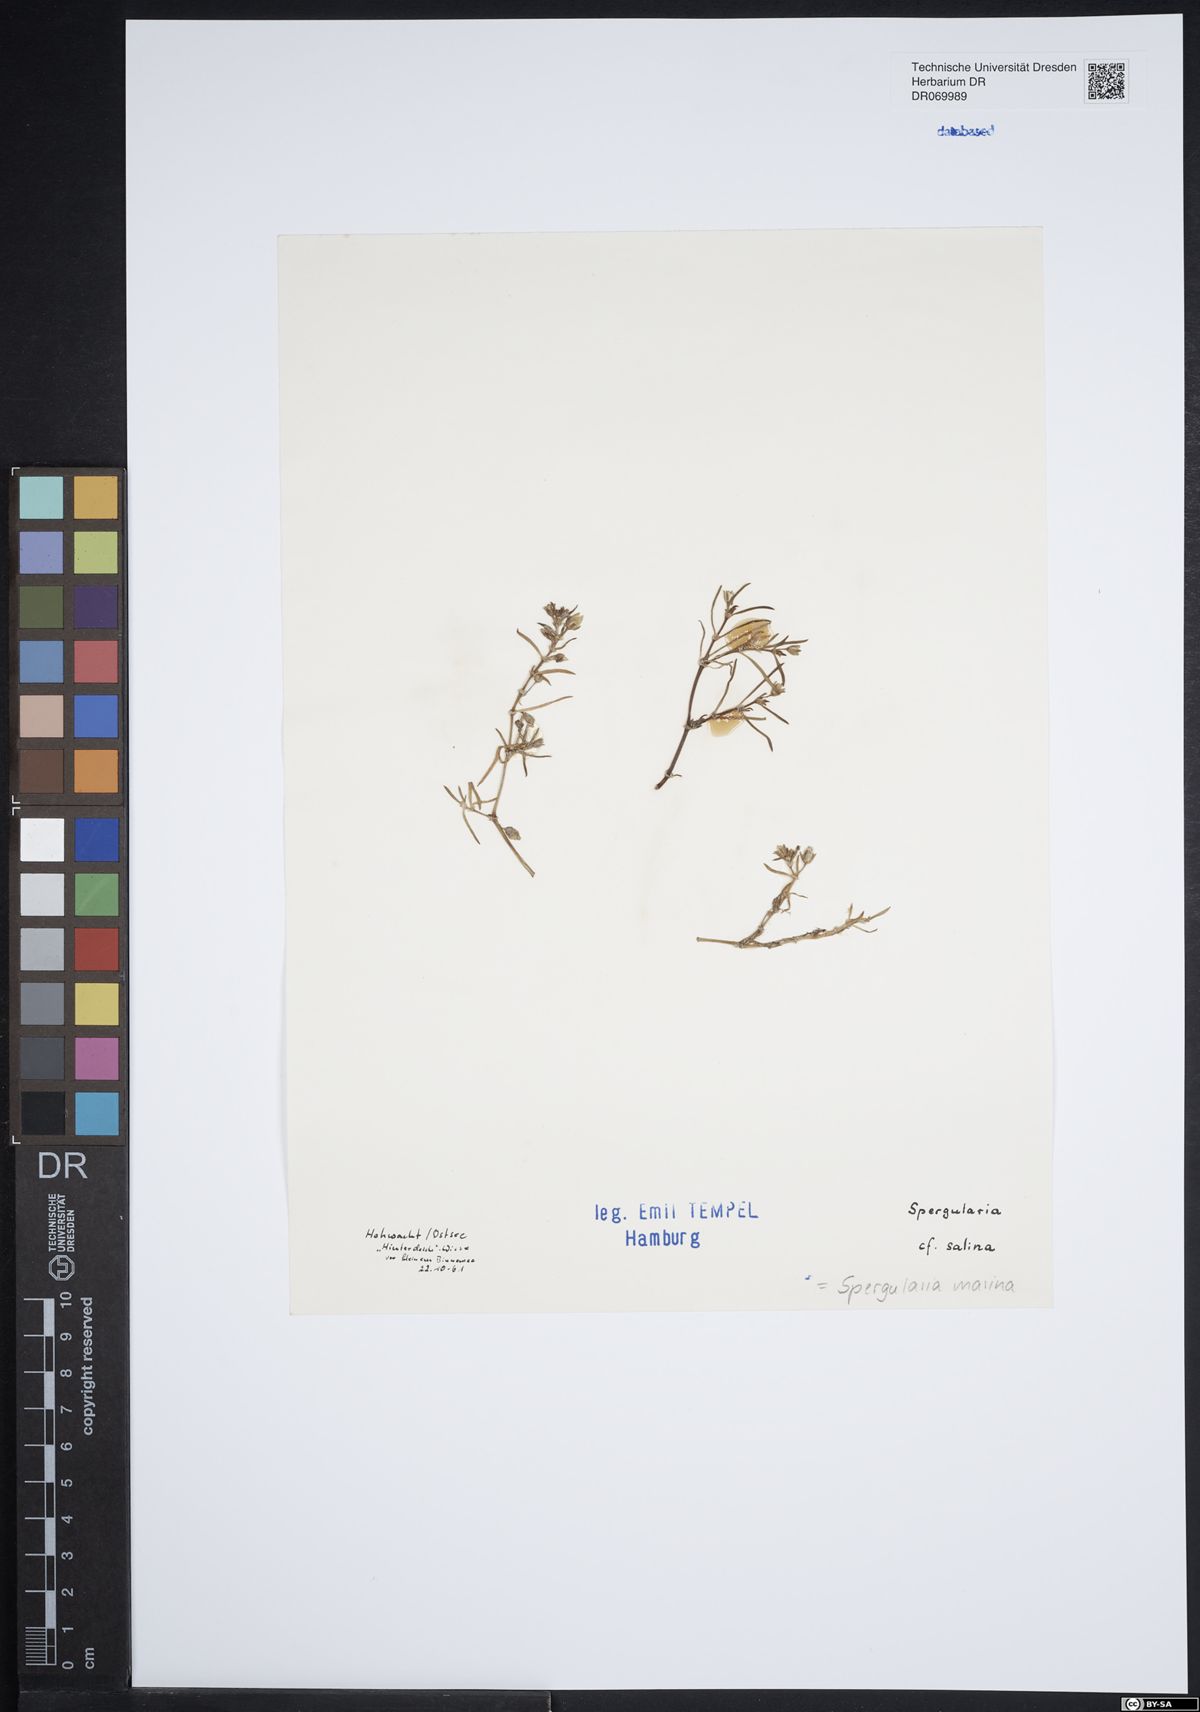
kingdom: Plantae
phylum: Tracheophyta
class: Magnoliopsida
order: Caryophyllales
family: Caryophyllaceae
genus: Spergularia
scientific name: Spergularia marina
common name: Lesser sea-spurrey
